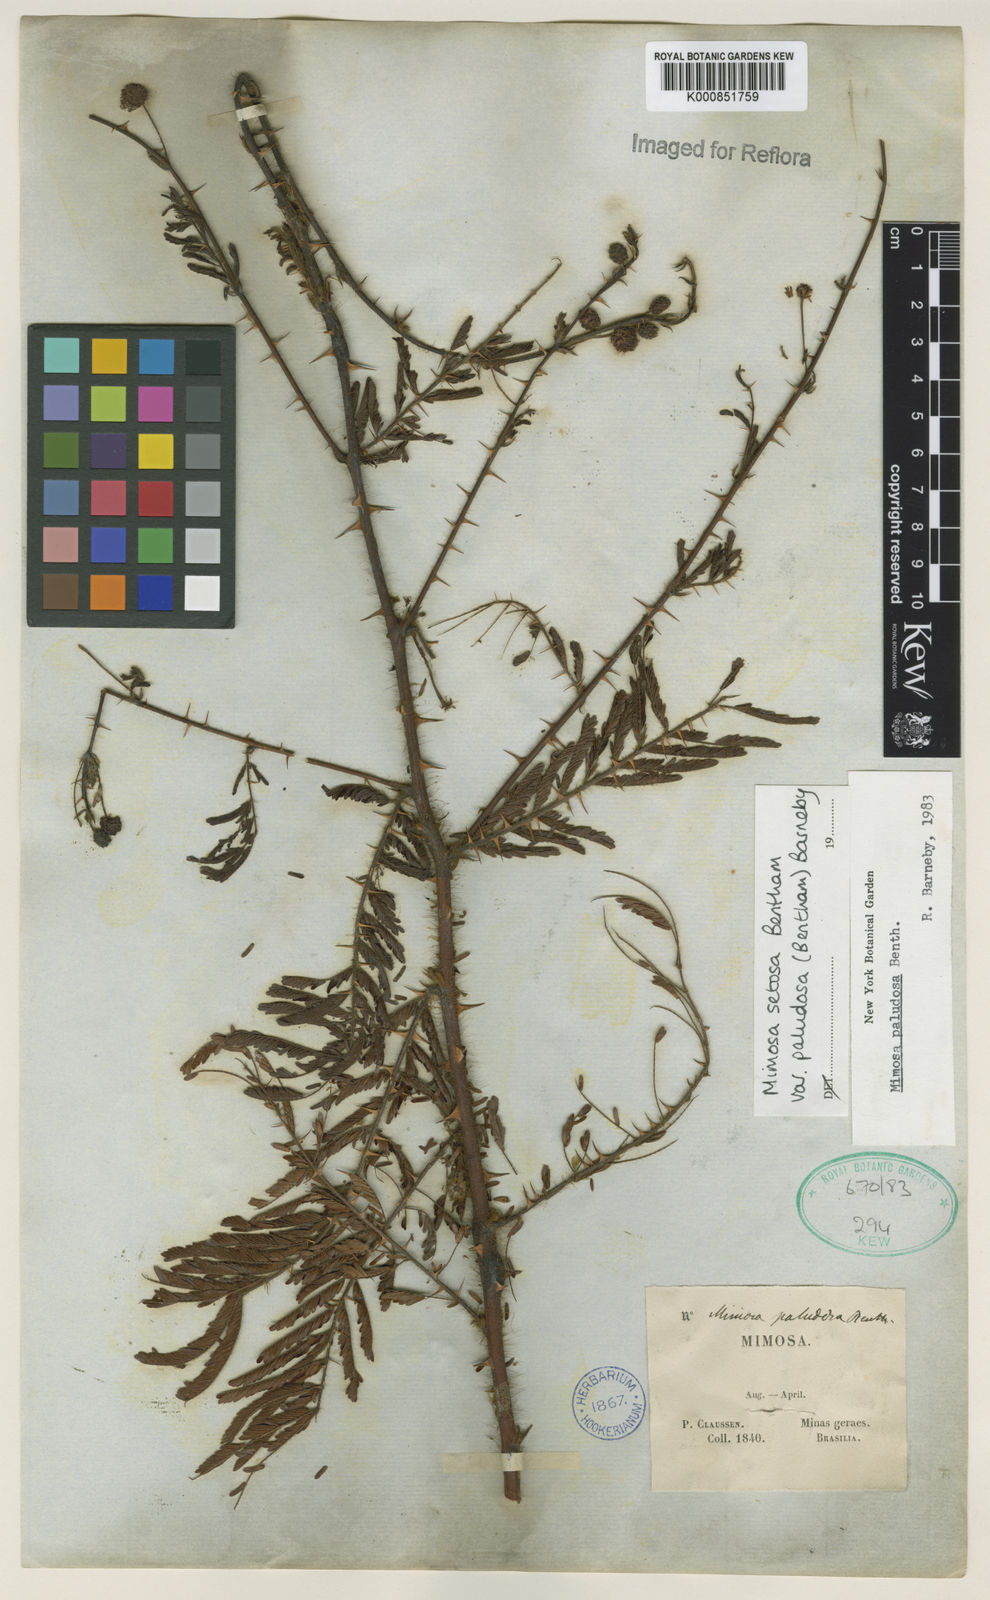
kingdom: Plantae
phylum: Tracheophyta
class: Magnoliopsida
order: Fabales
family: Fabaceae
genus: Mimosa
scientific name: Mimosa paludosa
